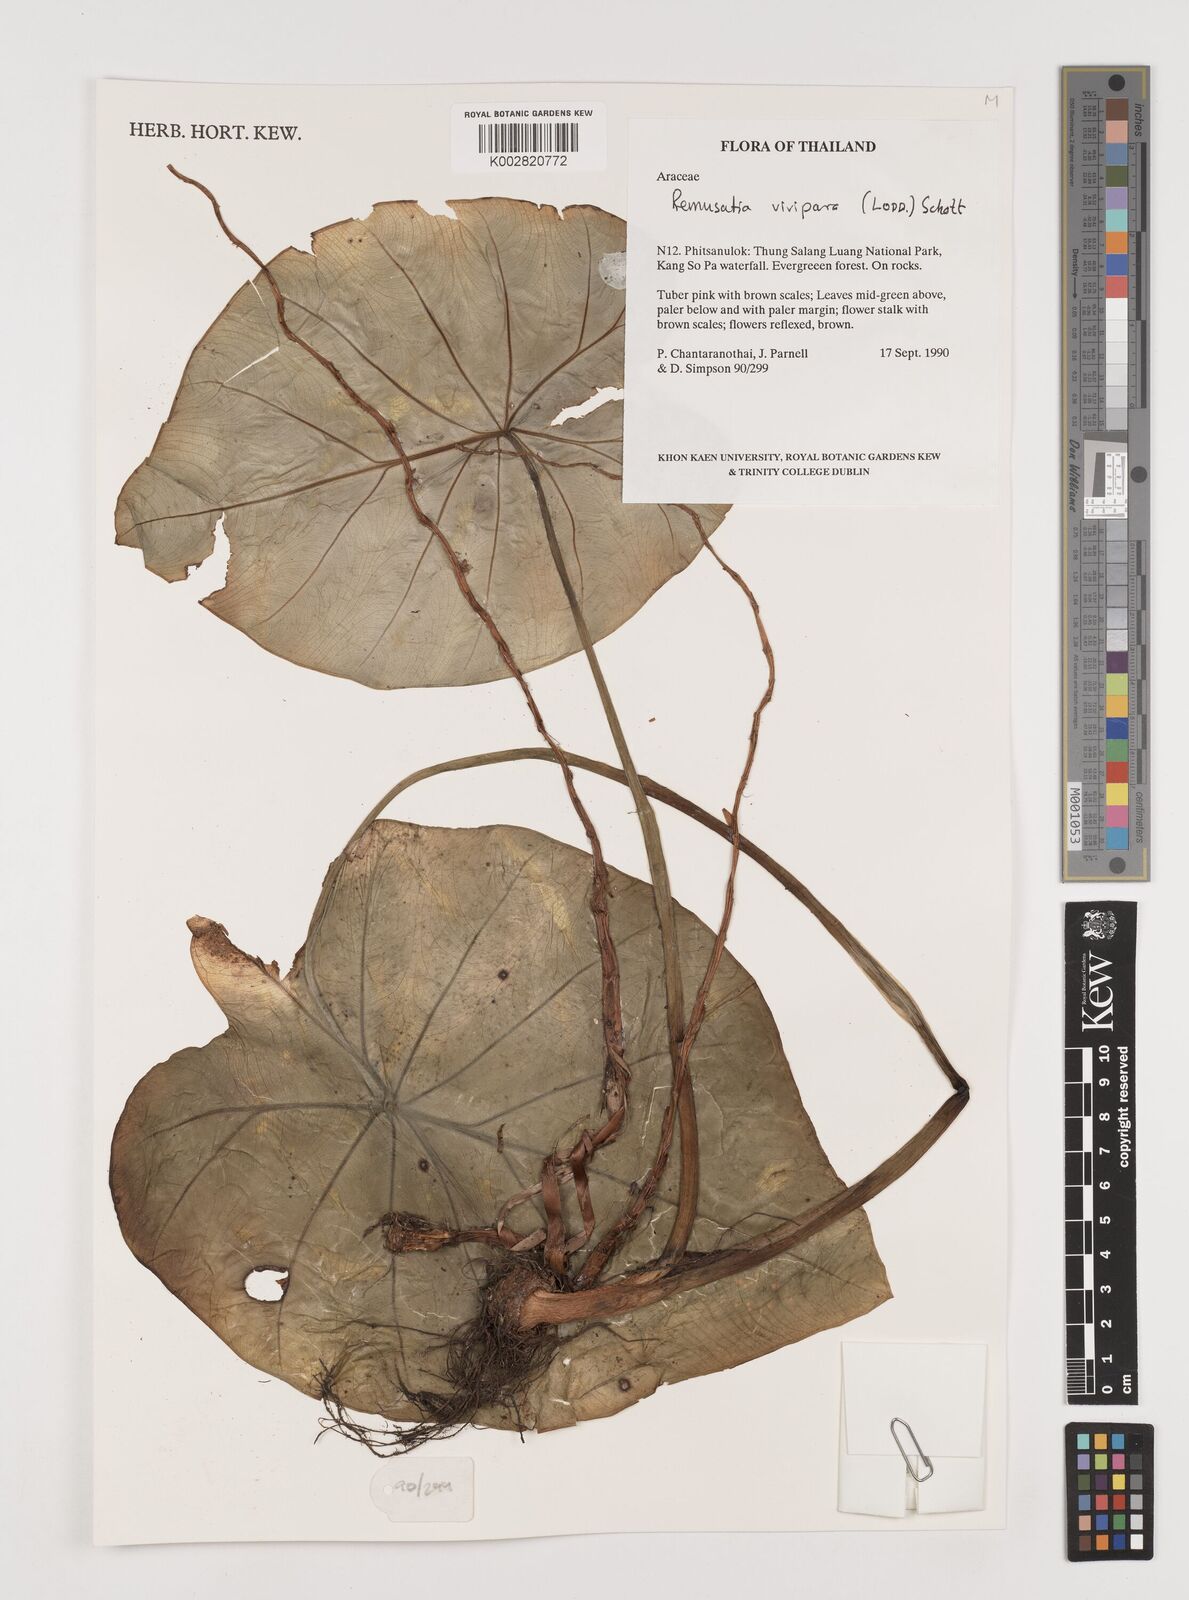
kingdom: Plantae
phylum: Tracheophyta
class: Liliopsida
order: Alismatales
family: Araceae
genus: Remusatia
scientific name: Remusatia vivipara
